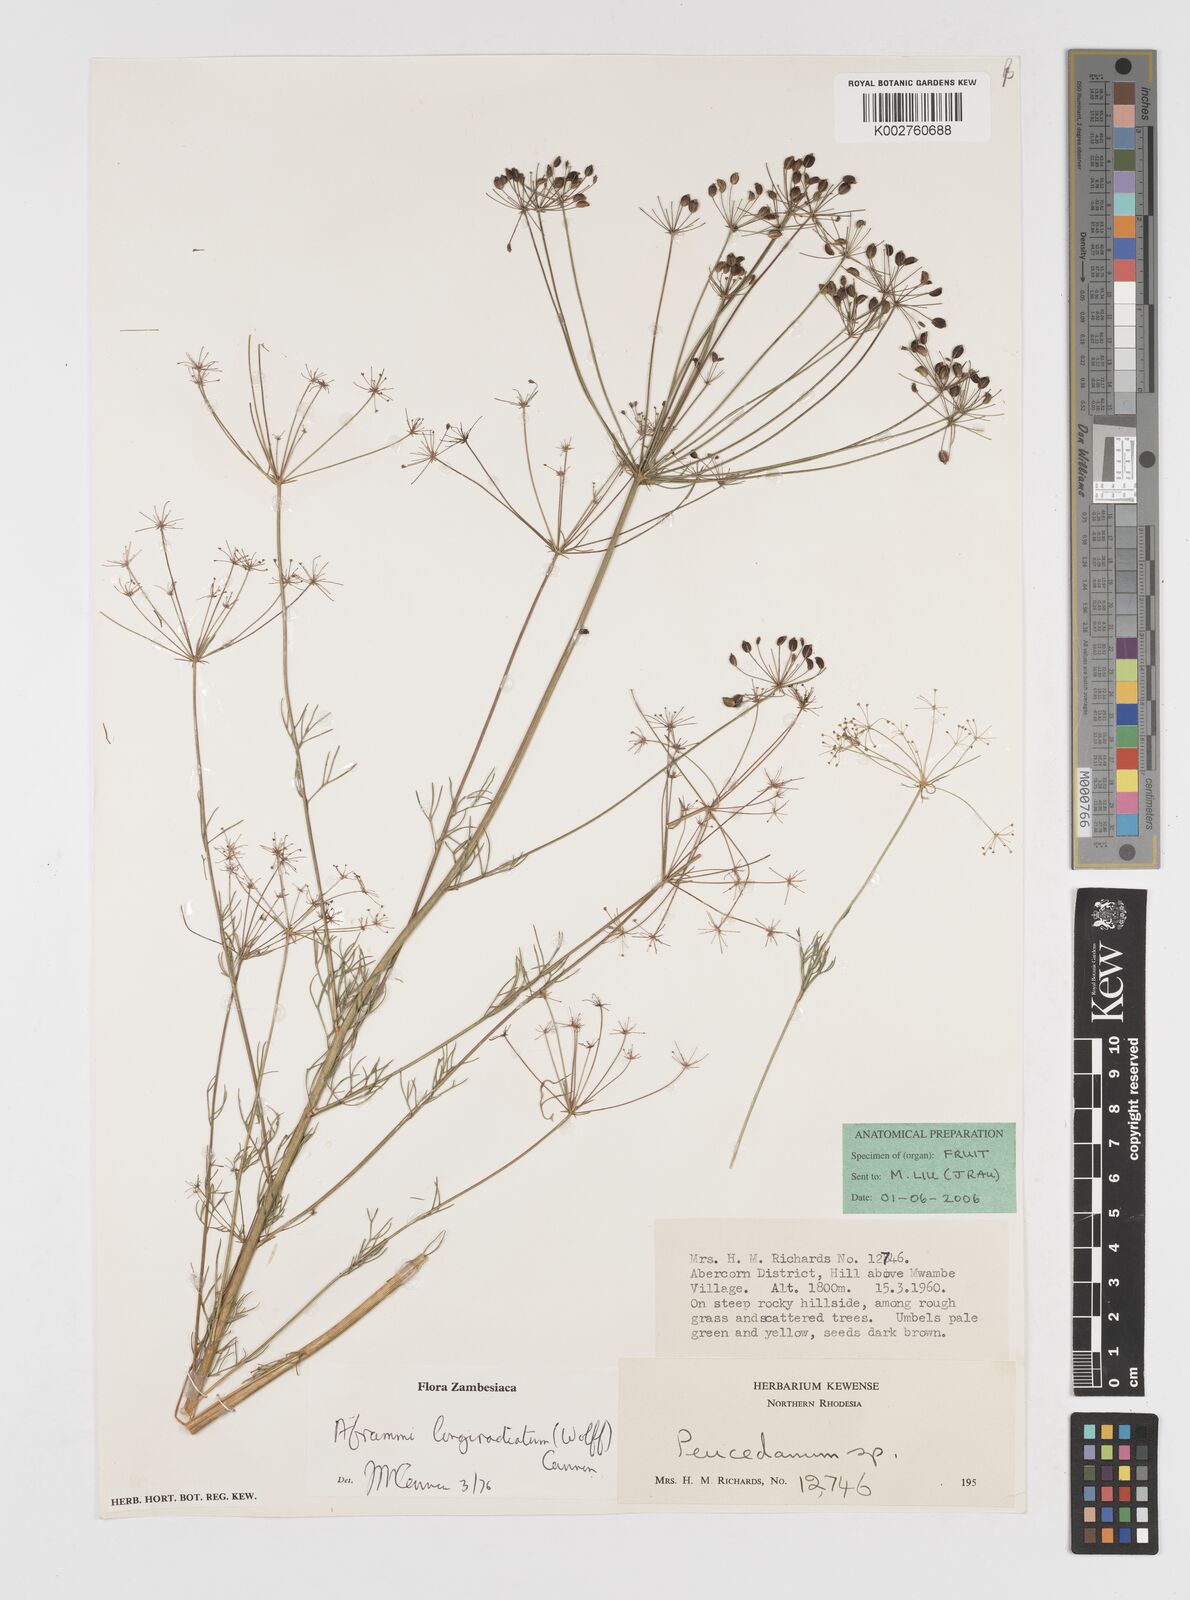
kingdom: Plantae
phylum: Tracheophyta
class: Magnoliopsida
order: Apiales
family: Apiaceae
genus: Physotrichia
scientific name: Physotrichia longiradiatum
